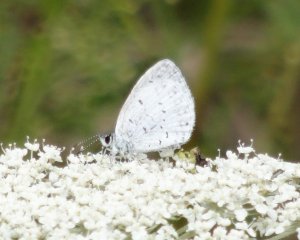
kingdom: Animalia
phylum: Arthropoda
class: Insecta
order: Lepidoptera
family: Lycaenidae
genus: Cyaniris
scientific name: Cyaniris neglecta
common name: Summer Azure
